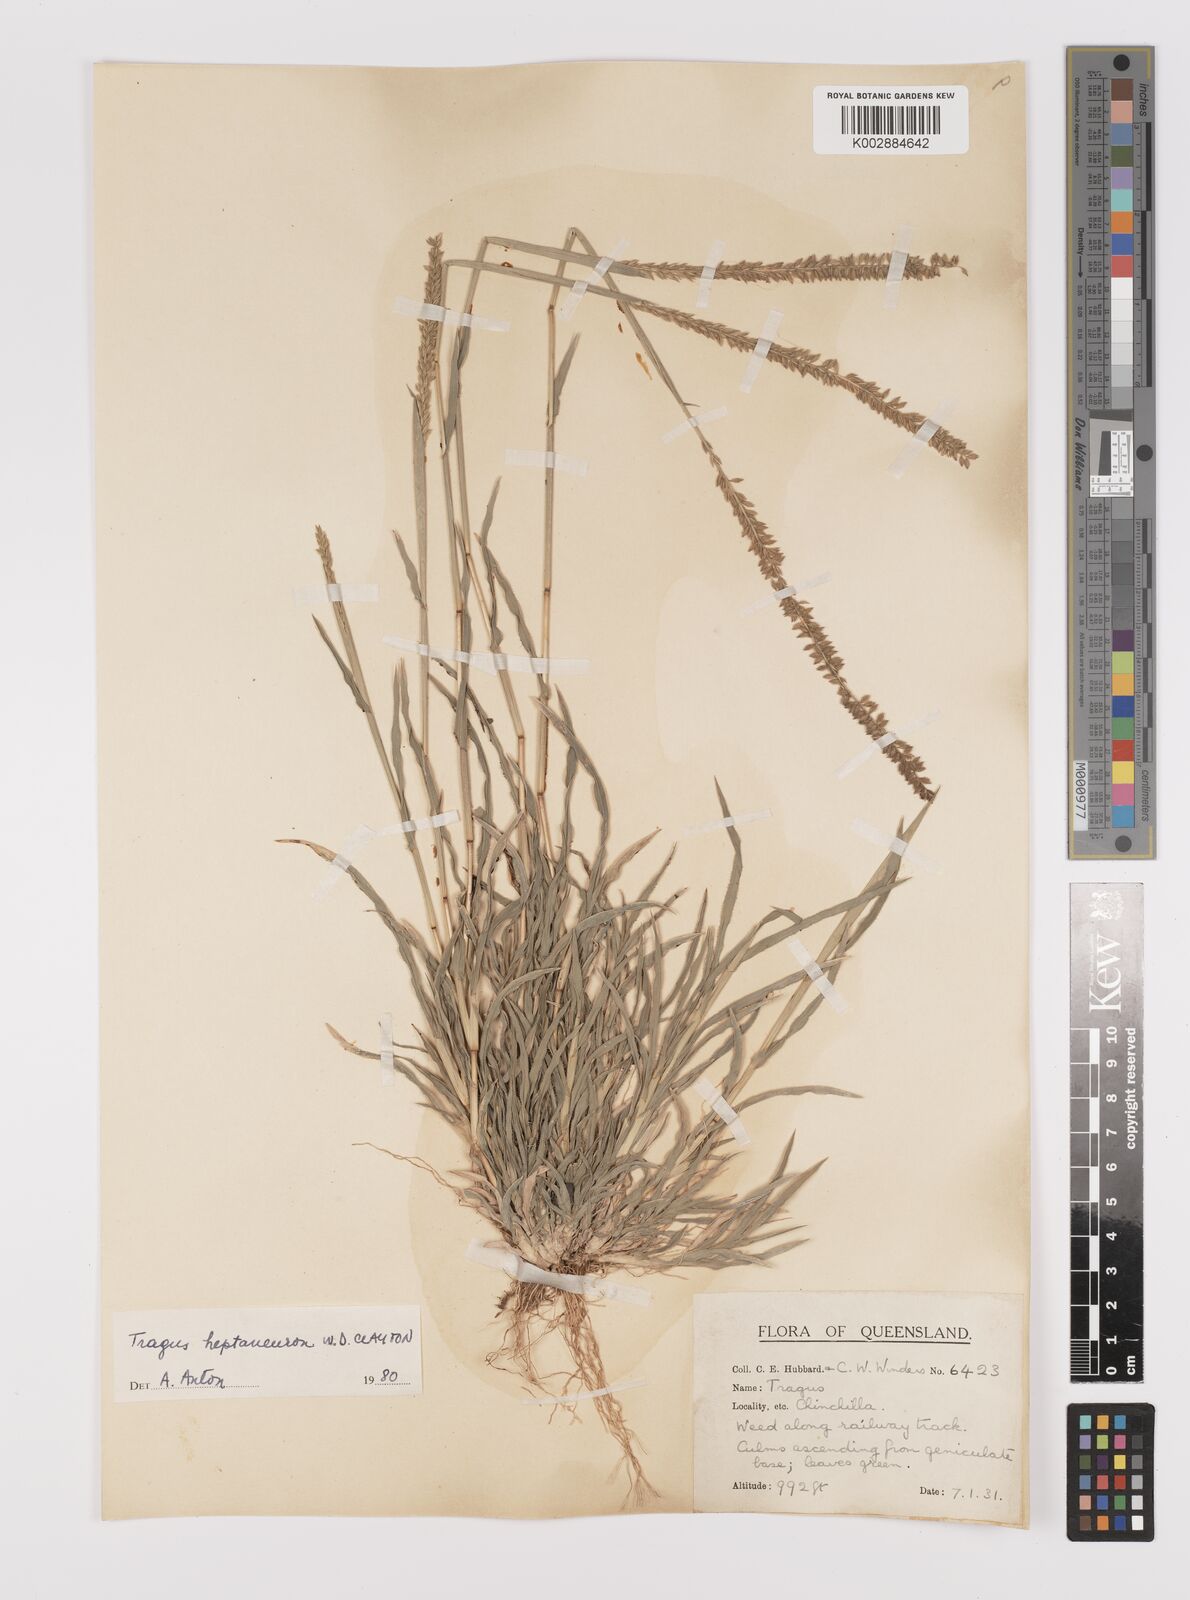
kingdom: Plantae
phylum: Tracheophyta
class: Liliopsida
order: Poales
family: Poaceae
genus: Tragus
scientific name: Tragus australianus
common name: Australian bur-grass
